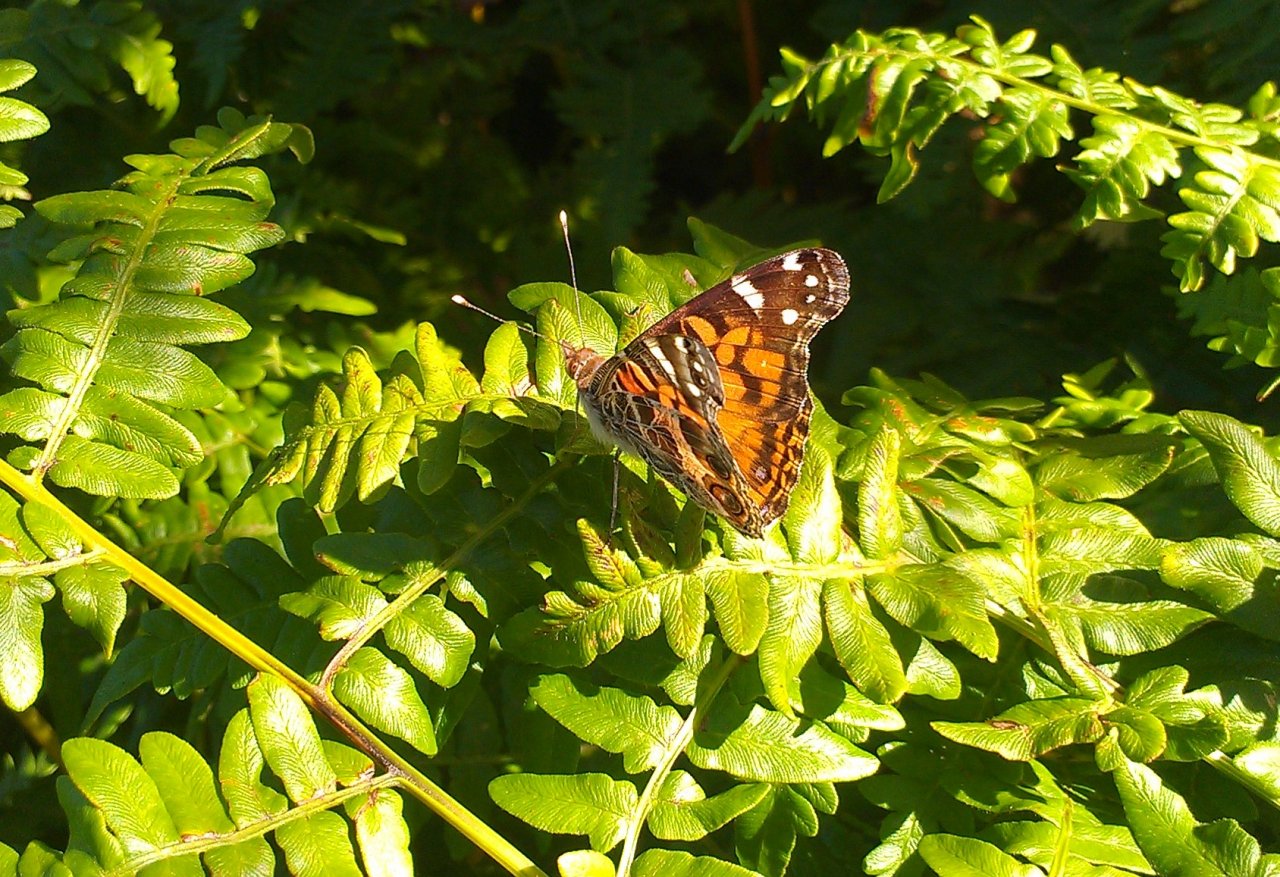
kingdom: Animalia
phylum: Arthropoda
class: Insecta
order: Lepidoptera
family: Nymphalidae
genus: Vanessa
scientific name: Vanessa virginiensis
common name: American Lady
